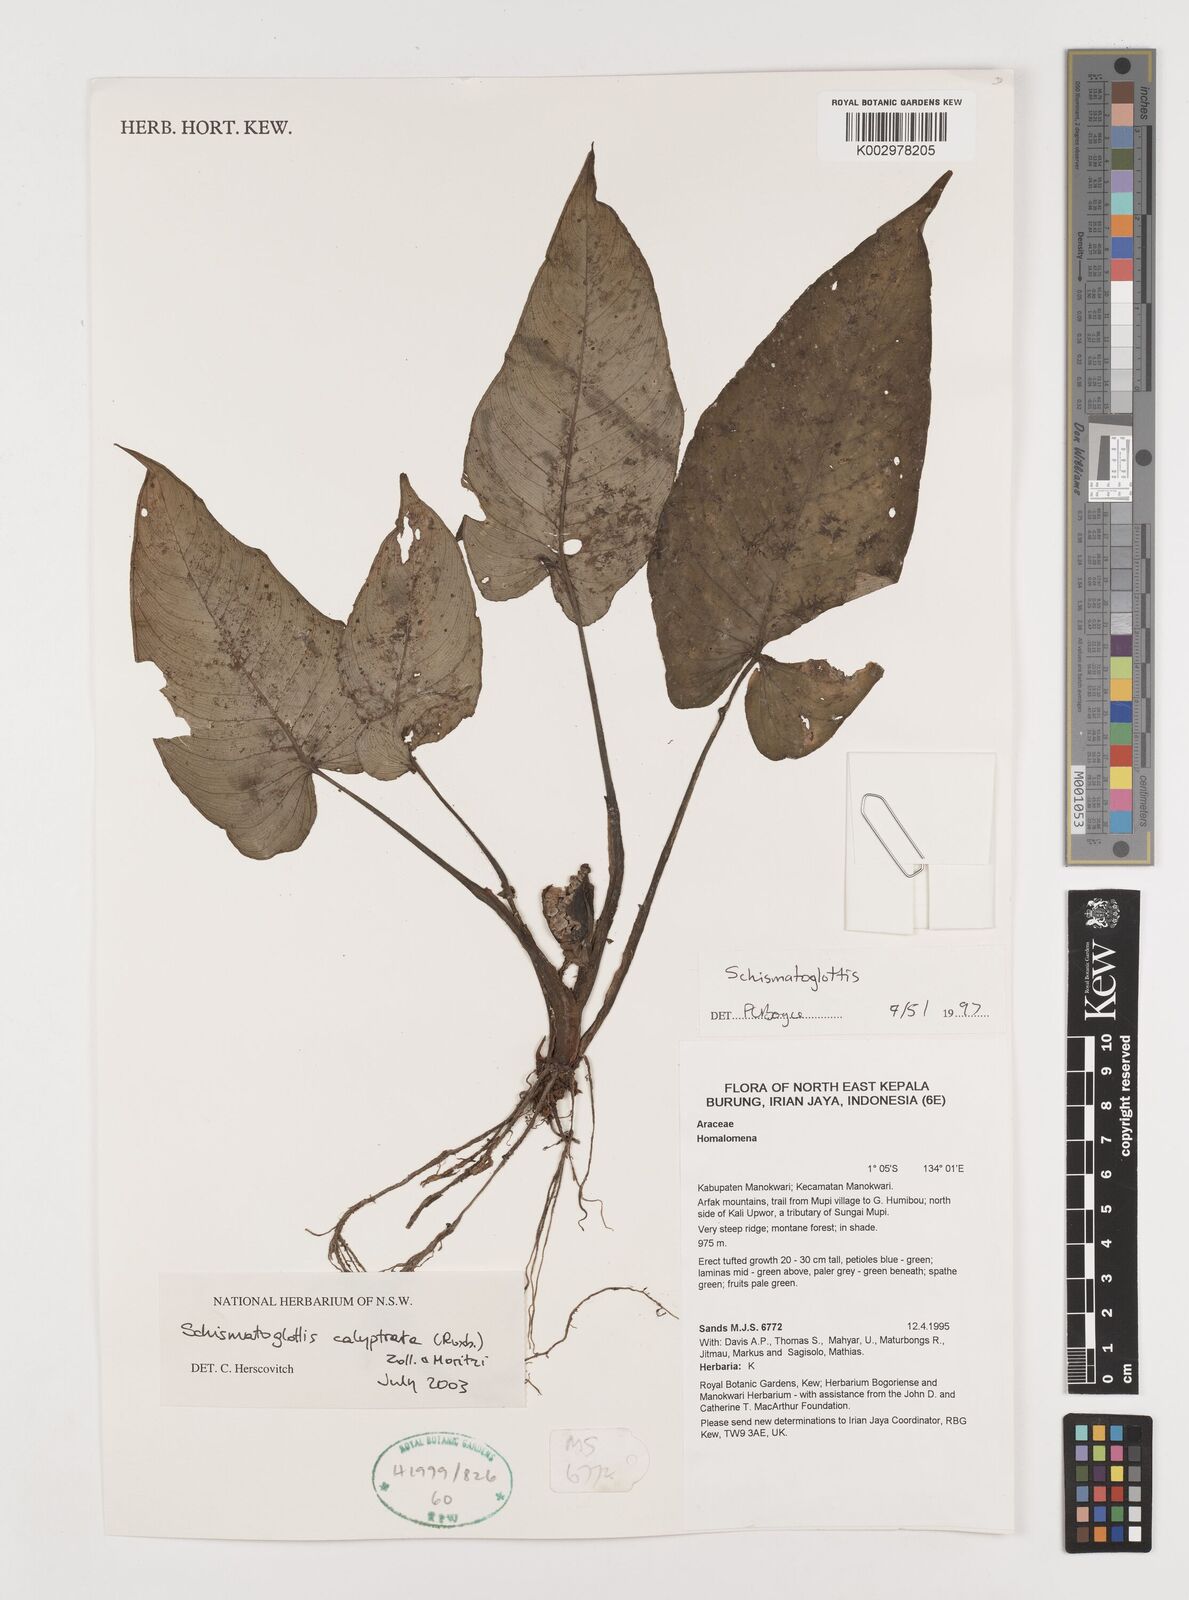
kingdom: Plantae
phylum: Tracheophyta
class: Liliopsida
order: Alismatales
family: Araceae
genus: Schismatoglottis
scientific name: Schismatoglottis calyptrata
